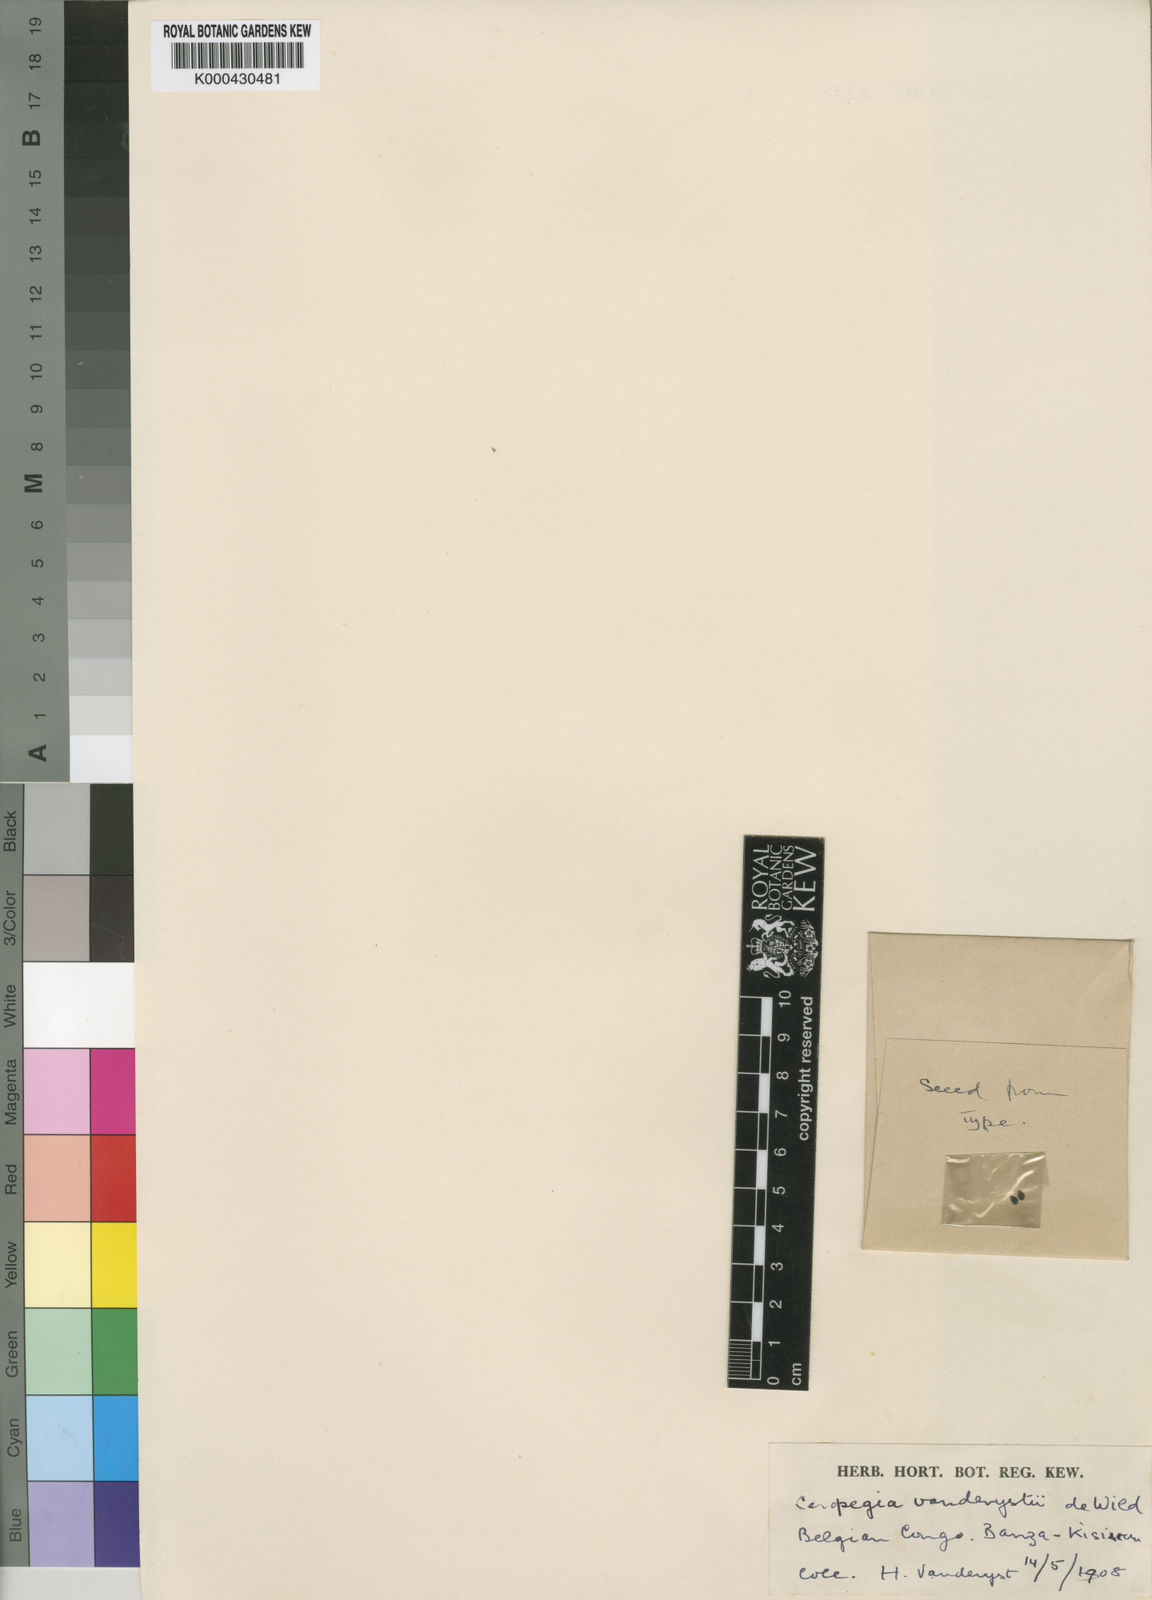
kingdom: Plantae
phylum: Tracheophyta
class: Magnoliopsida
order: Lamiales
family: Pedaliaceae
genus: Sesamum
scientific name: Sesamum integribracteatum
